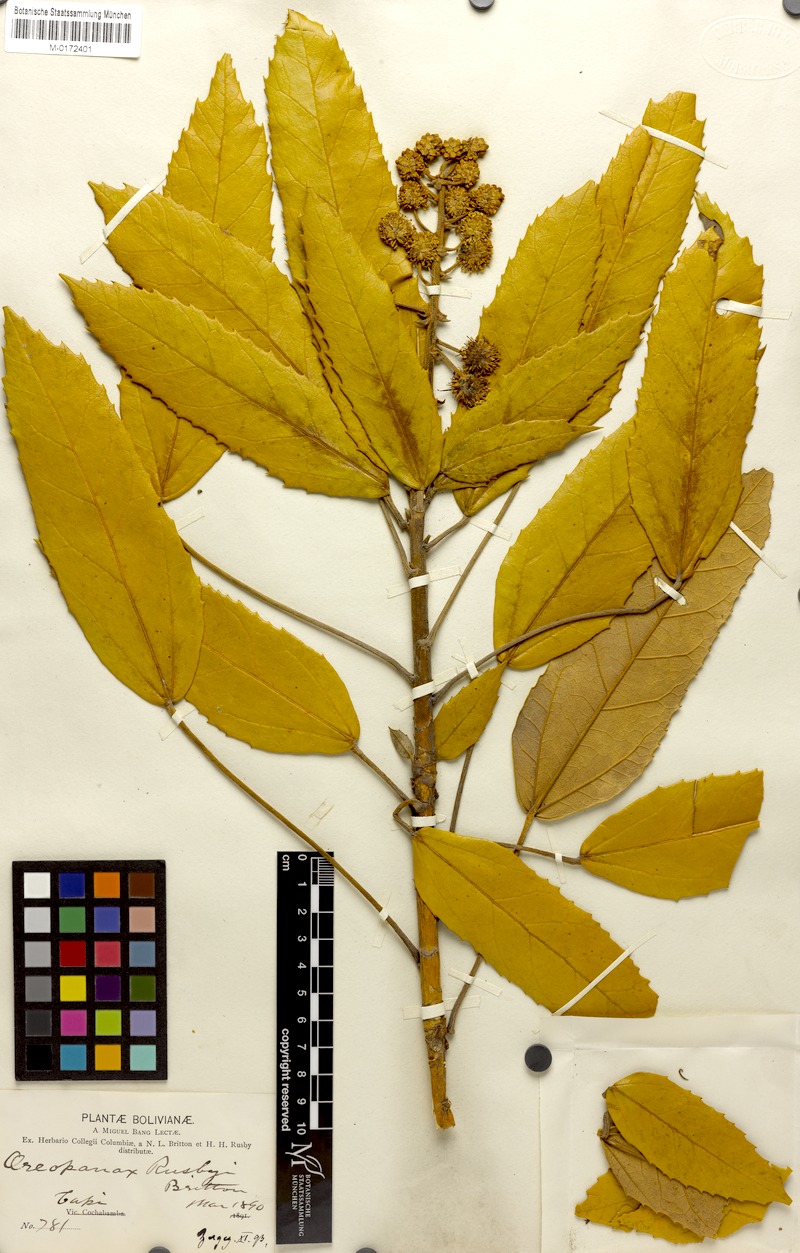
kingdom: Plantae
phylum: Tracheophyta
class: Magnoliopsida
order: Apiales
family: Araliaceae
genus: Oreopanax
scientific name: Oreopanax rusbyi
